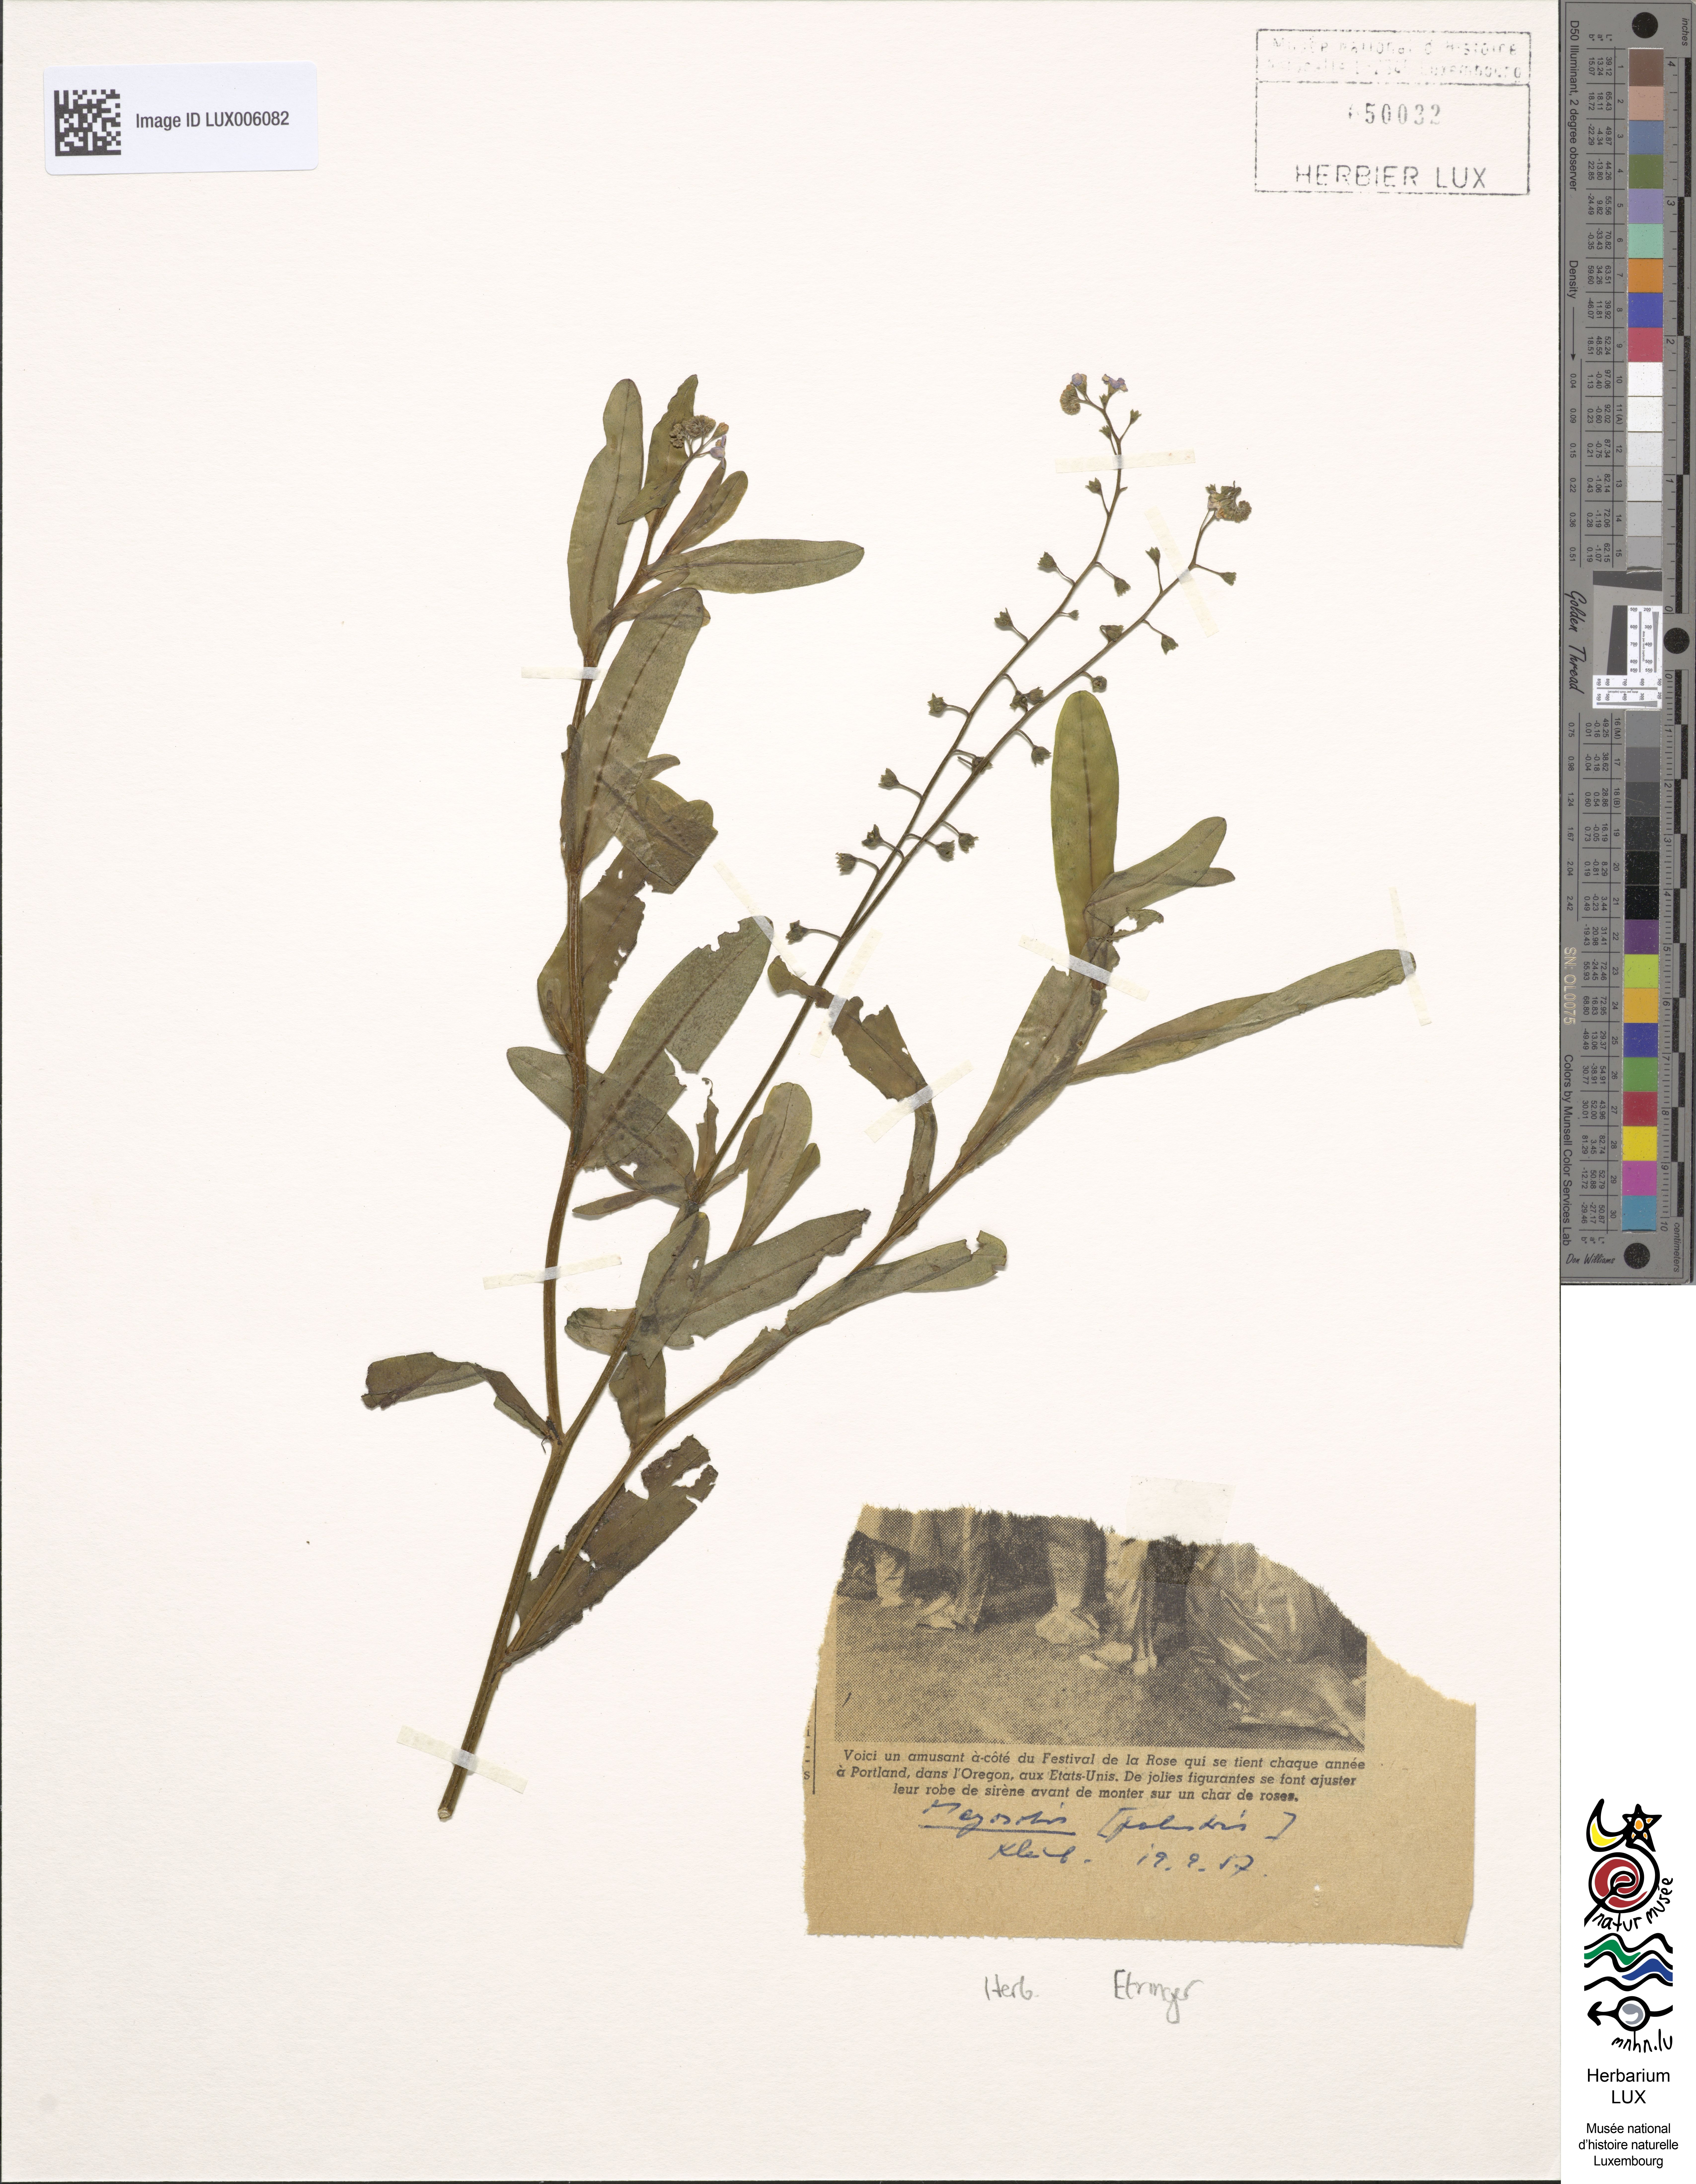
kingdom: Plantae
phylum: Tracheophyta
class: Magnoliopsida
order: Boraginales
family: Boraginaceae
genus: Myosotis
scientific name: Myosotis scorpioides
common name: Water forget-me-not
